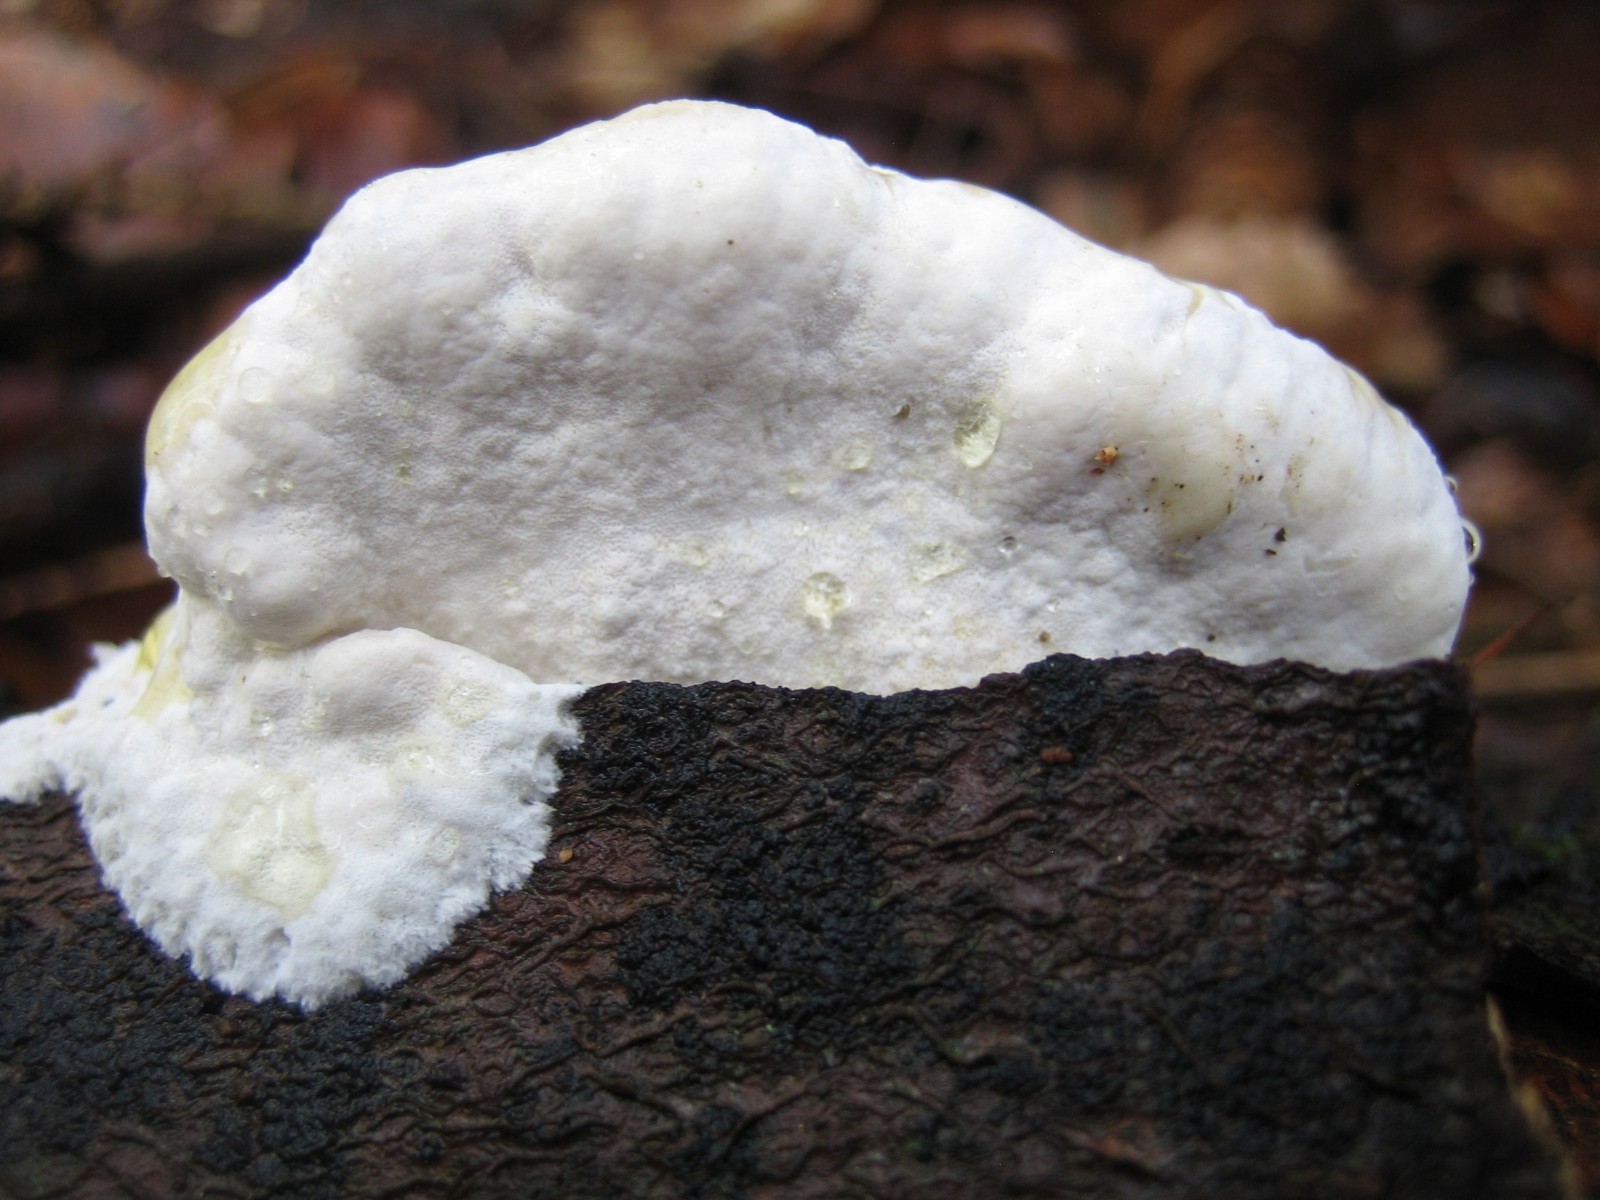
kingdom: Fungi
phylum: Basidiomycota
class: Agaricomycetes
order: Polyporales
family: Incrustoporiaceae
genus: Tyromyces
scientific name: Tyromyces lacteus
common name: mælkehvid kødporesvamp
